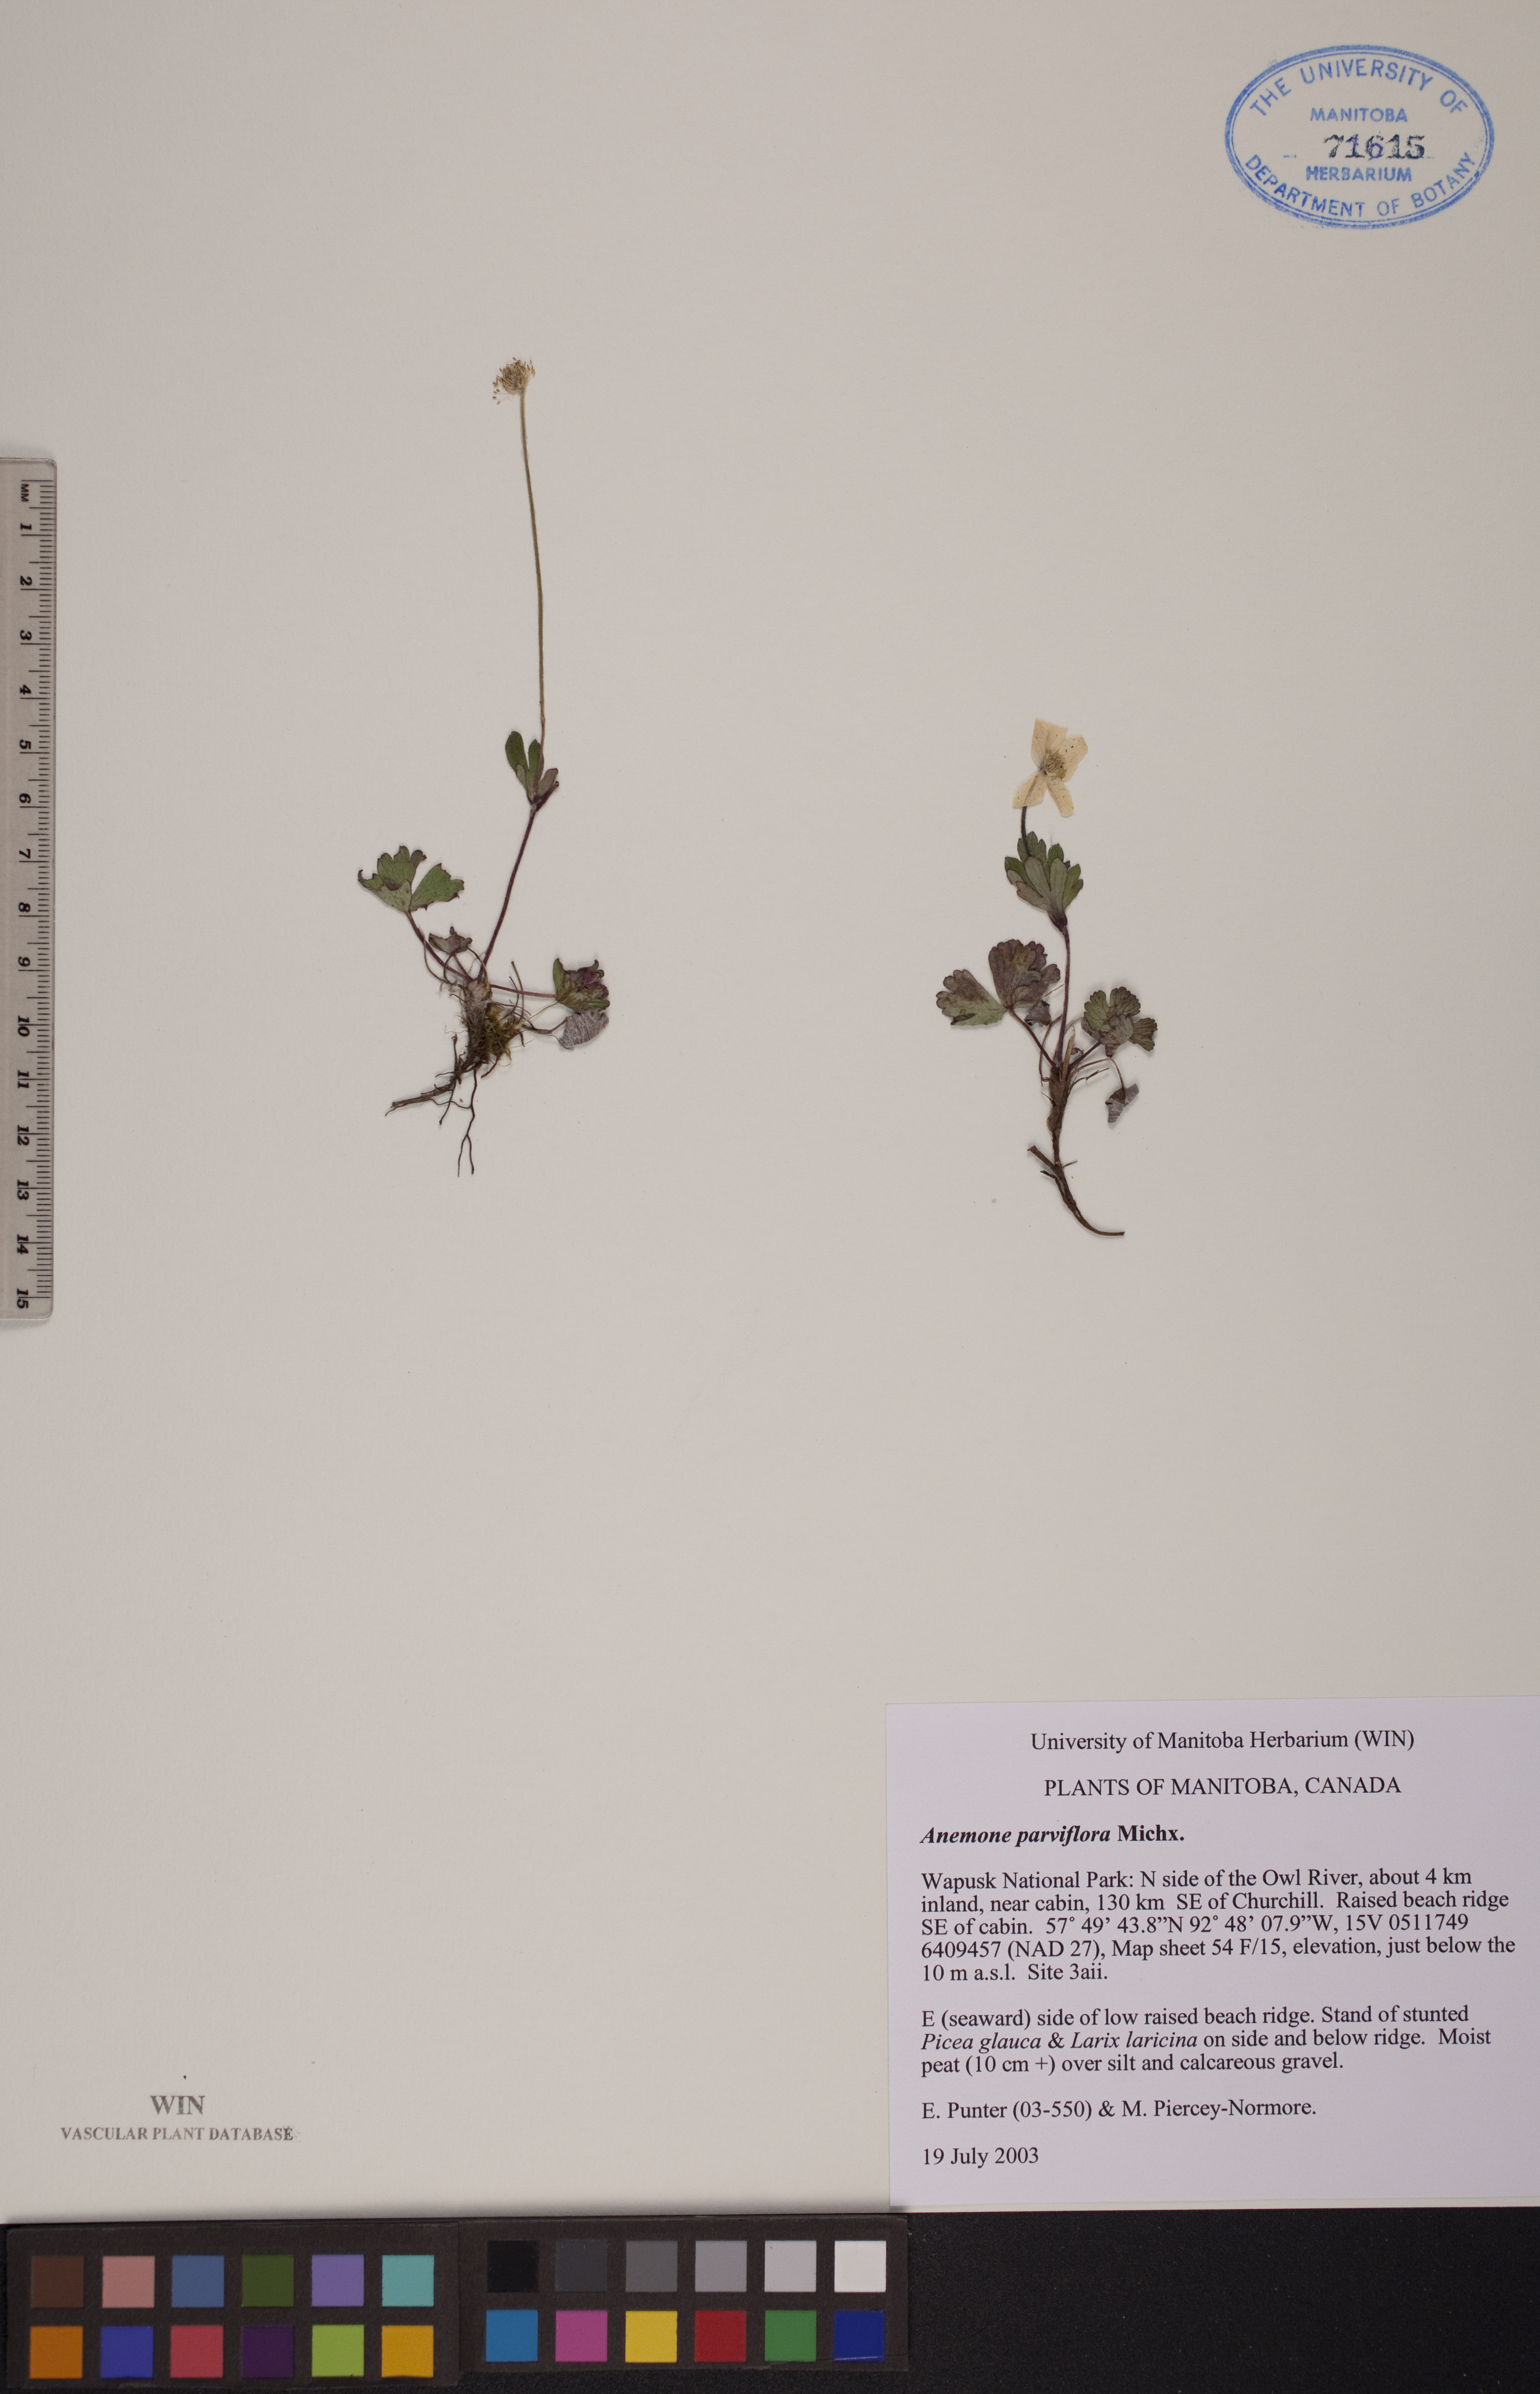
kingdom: Plantae
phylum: Tracheophyta
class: Magnoliopsida
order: Ranunculales
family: Ranunculaceae
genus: Anemone
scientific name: Anemone parviflora
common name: Northern anemone
